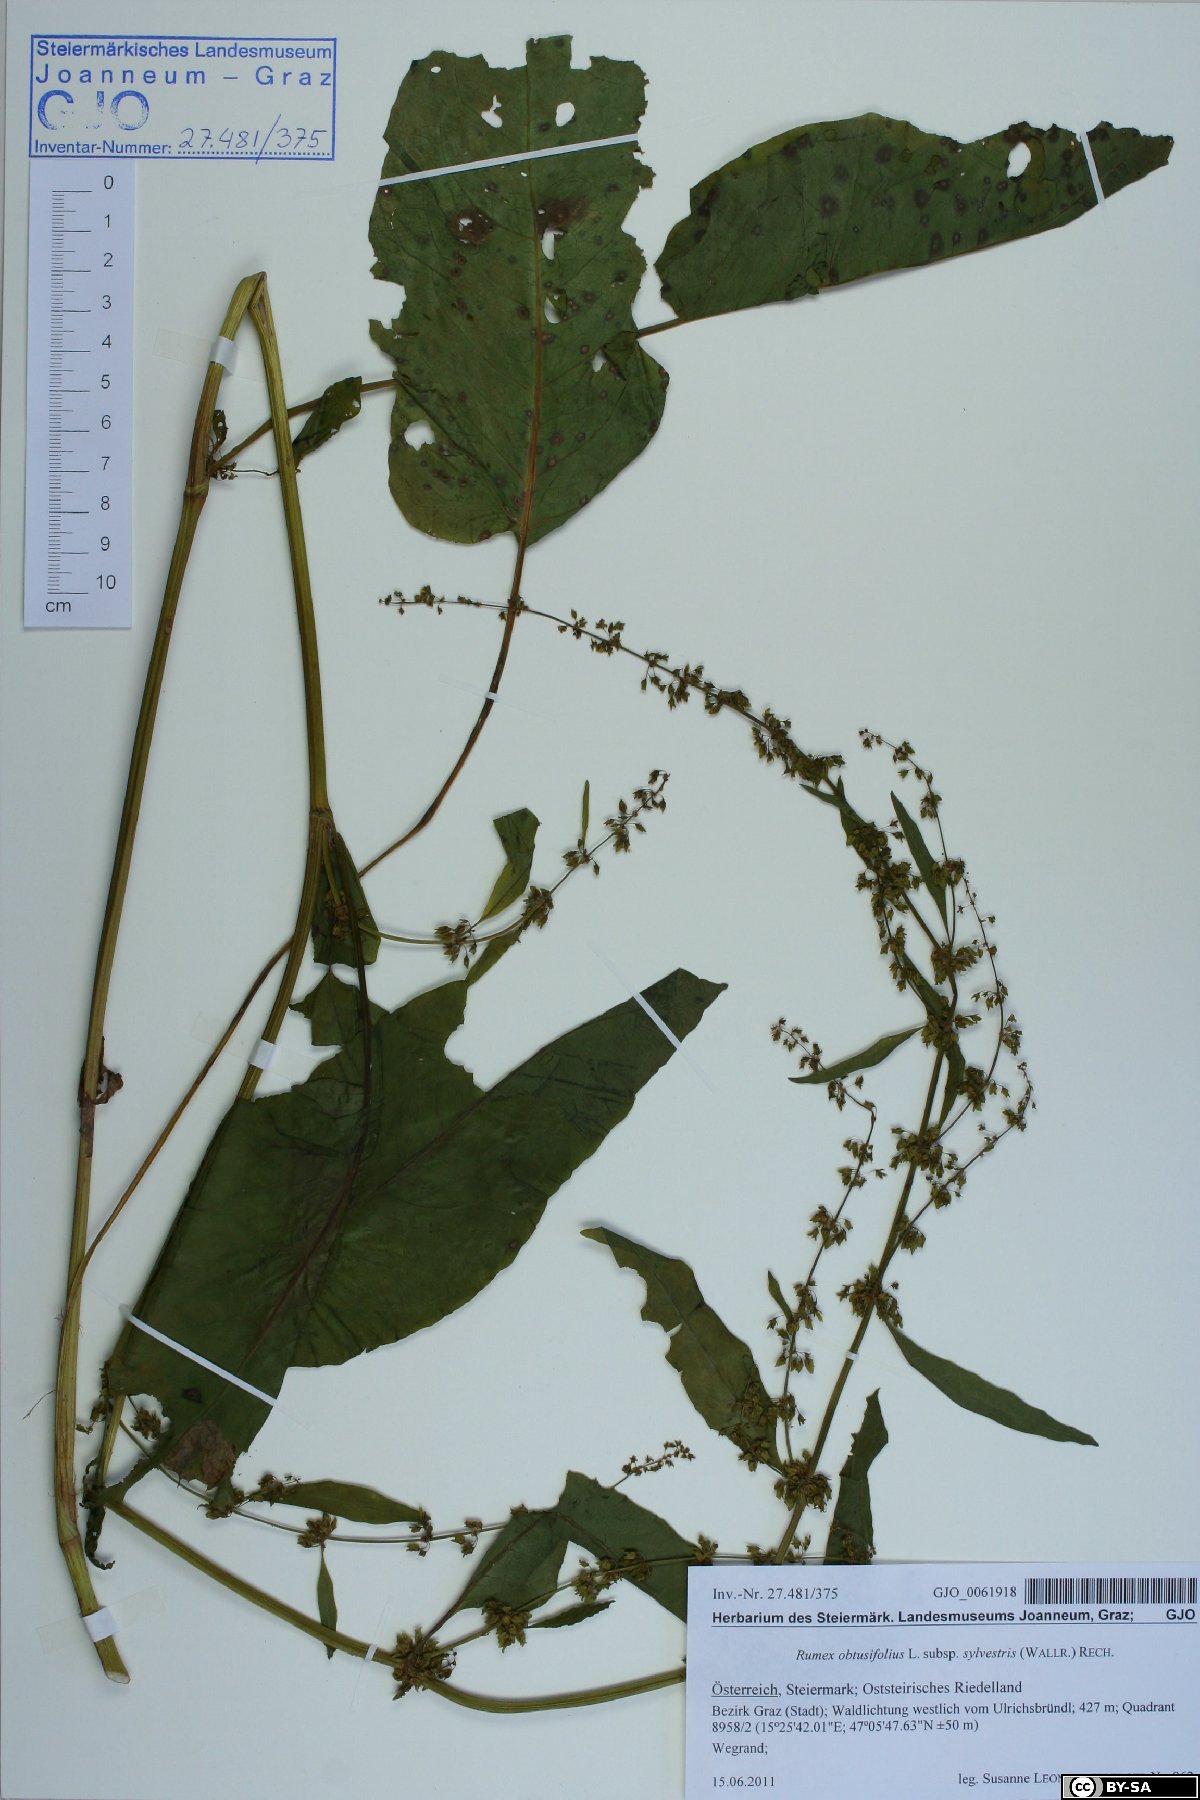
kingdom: Plantae
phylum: Tracheophyta
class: Magnoliopsida
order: Caryophyllales
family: Polygonaceae
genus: Rumex
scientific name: Rumex obtusifolius
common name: Bitter dock
